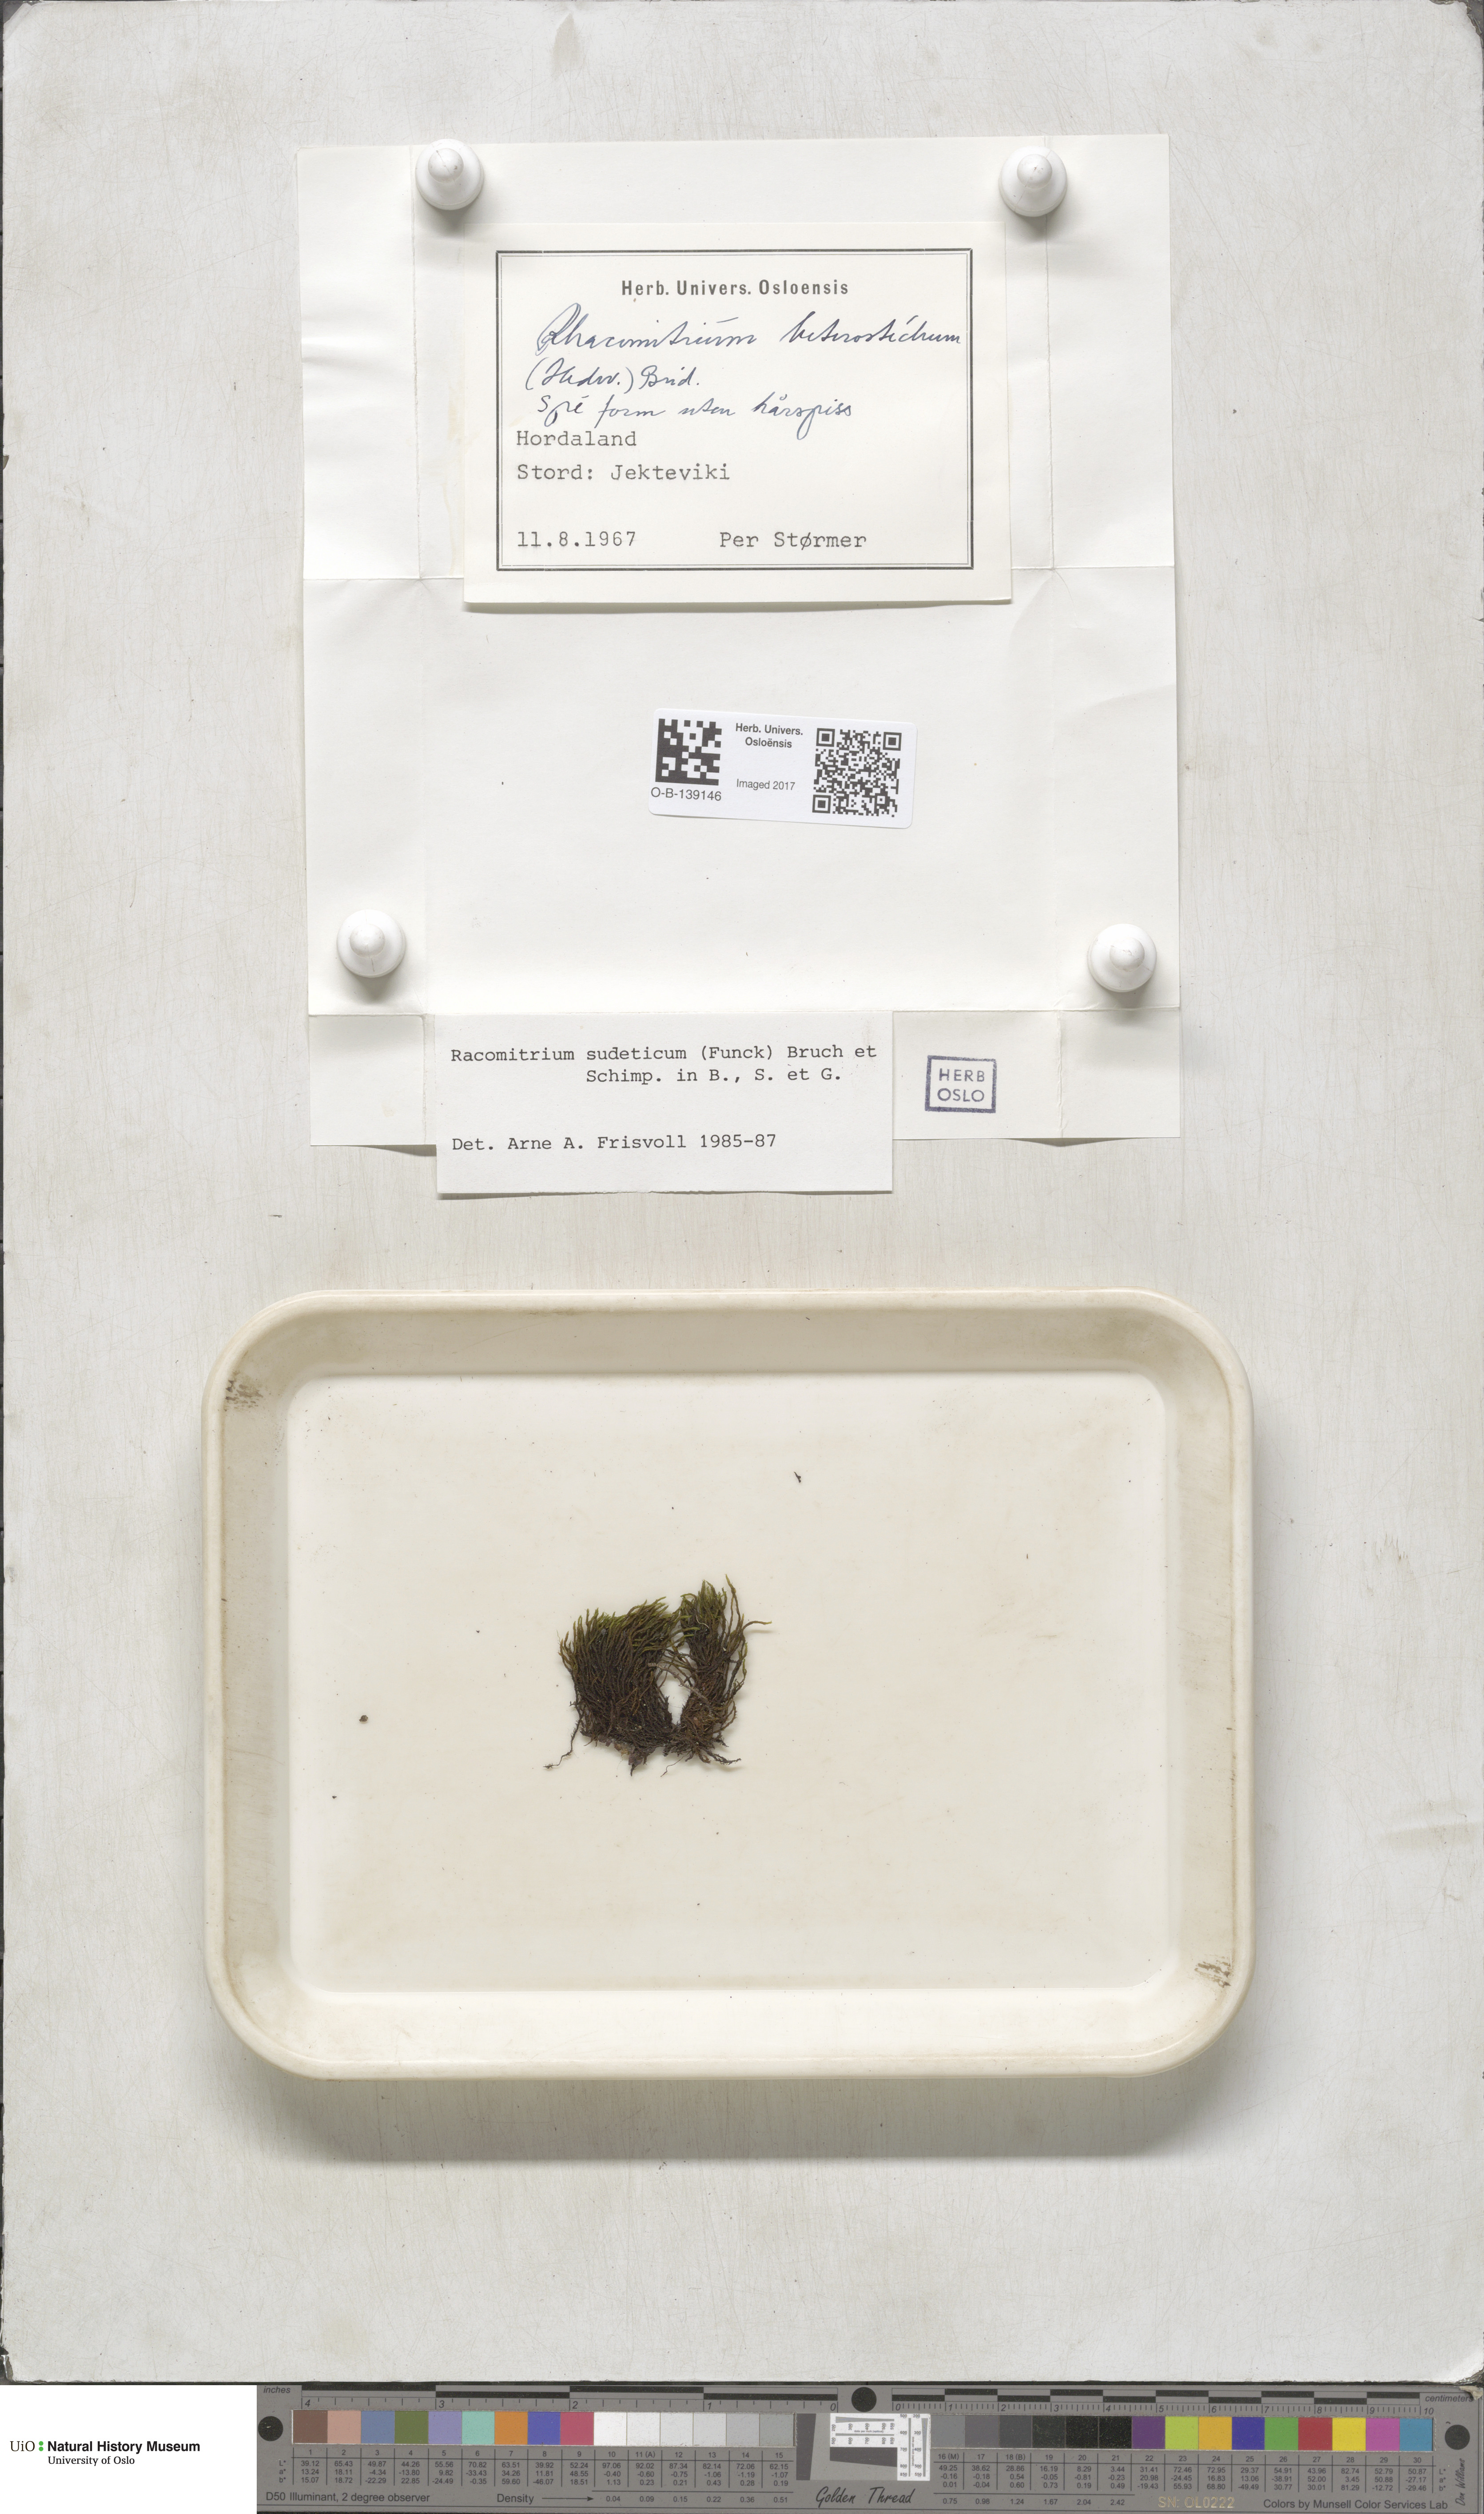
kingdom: Plantae
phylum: Bryophyta
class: Bryopsida
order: Grimmiales
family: Grimmiaceae
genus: Bucklandiella
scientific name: Bucklandiella sudetica
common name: Slender fringe-moss
